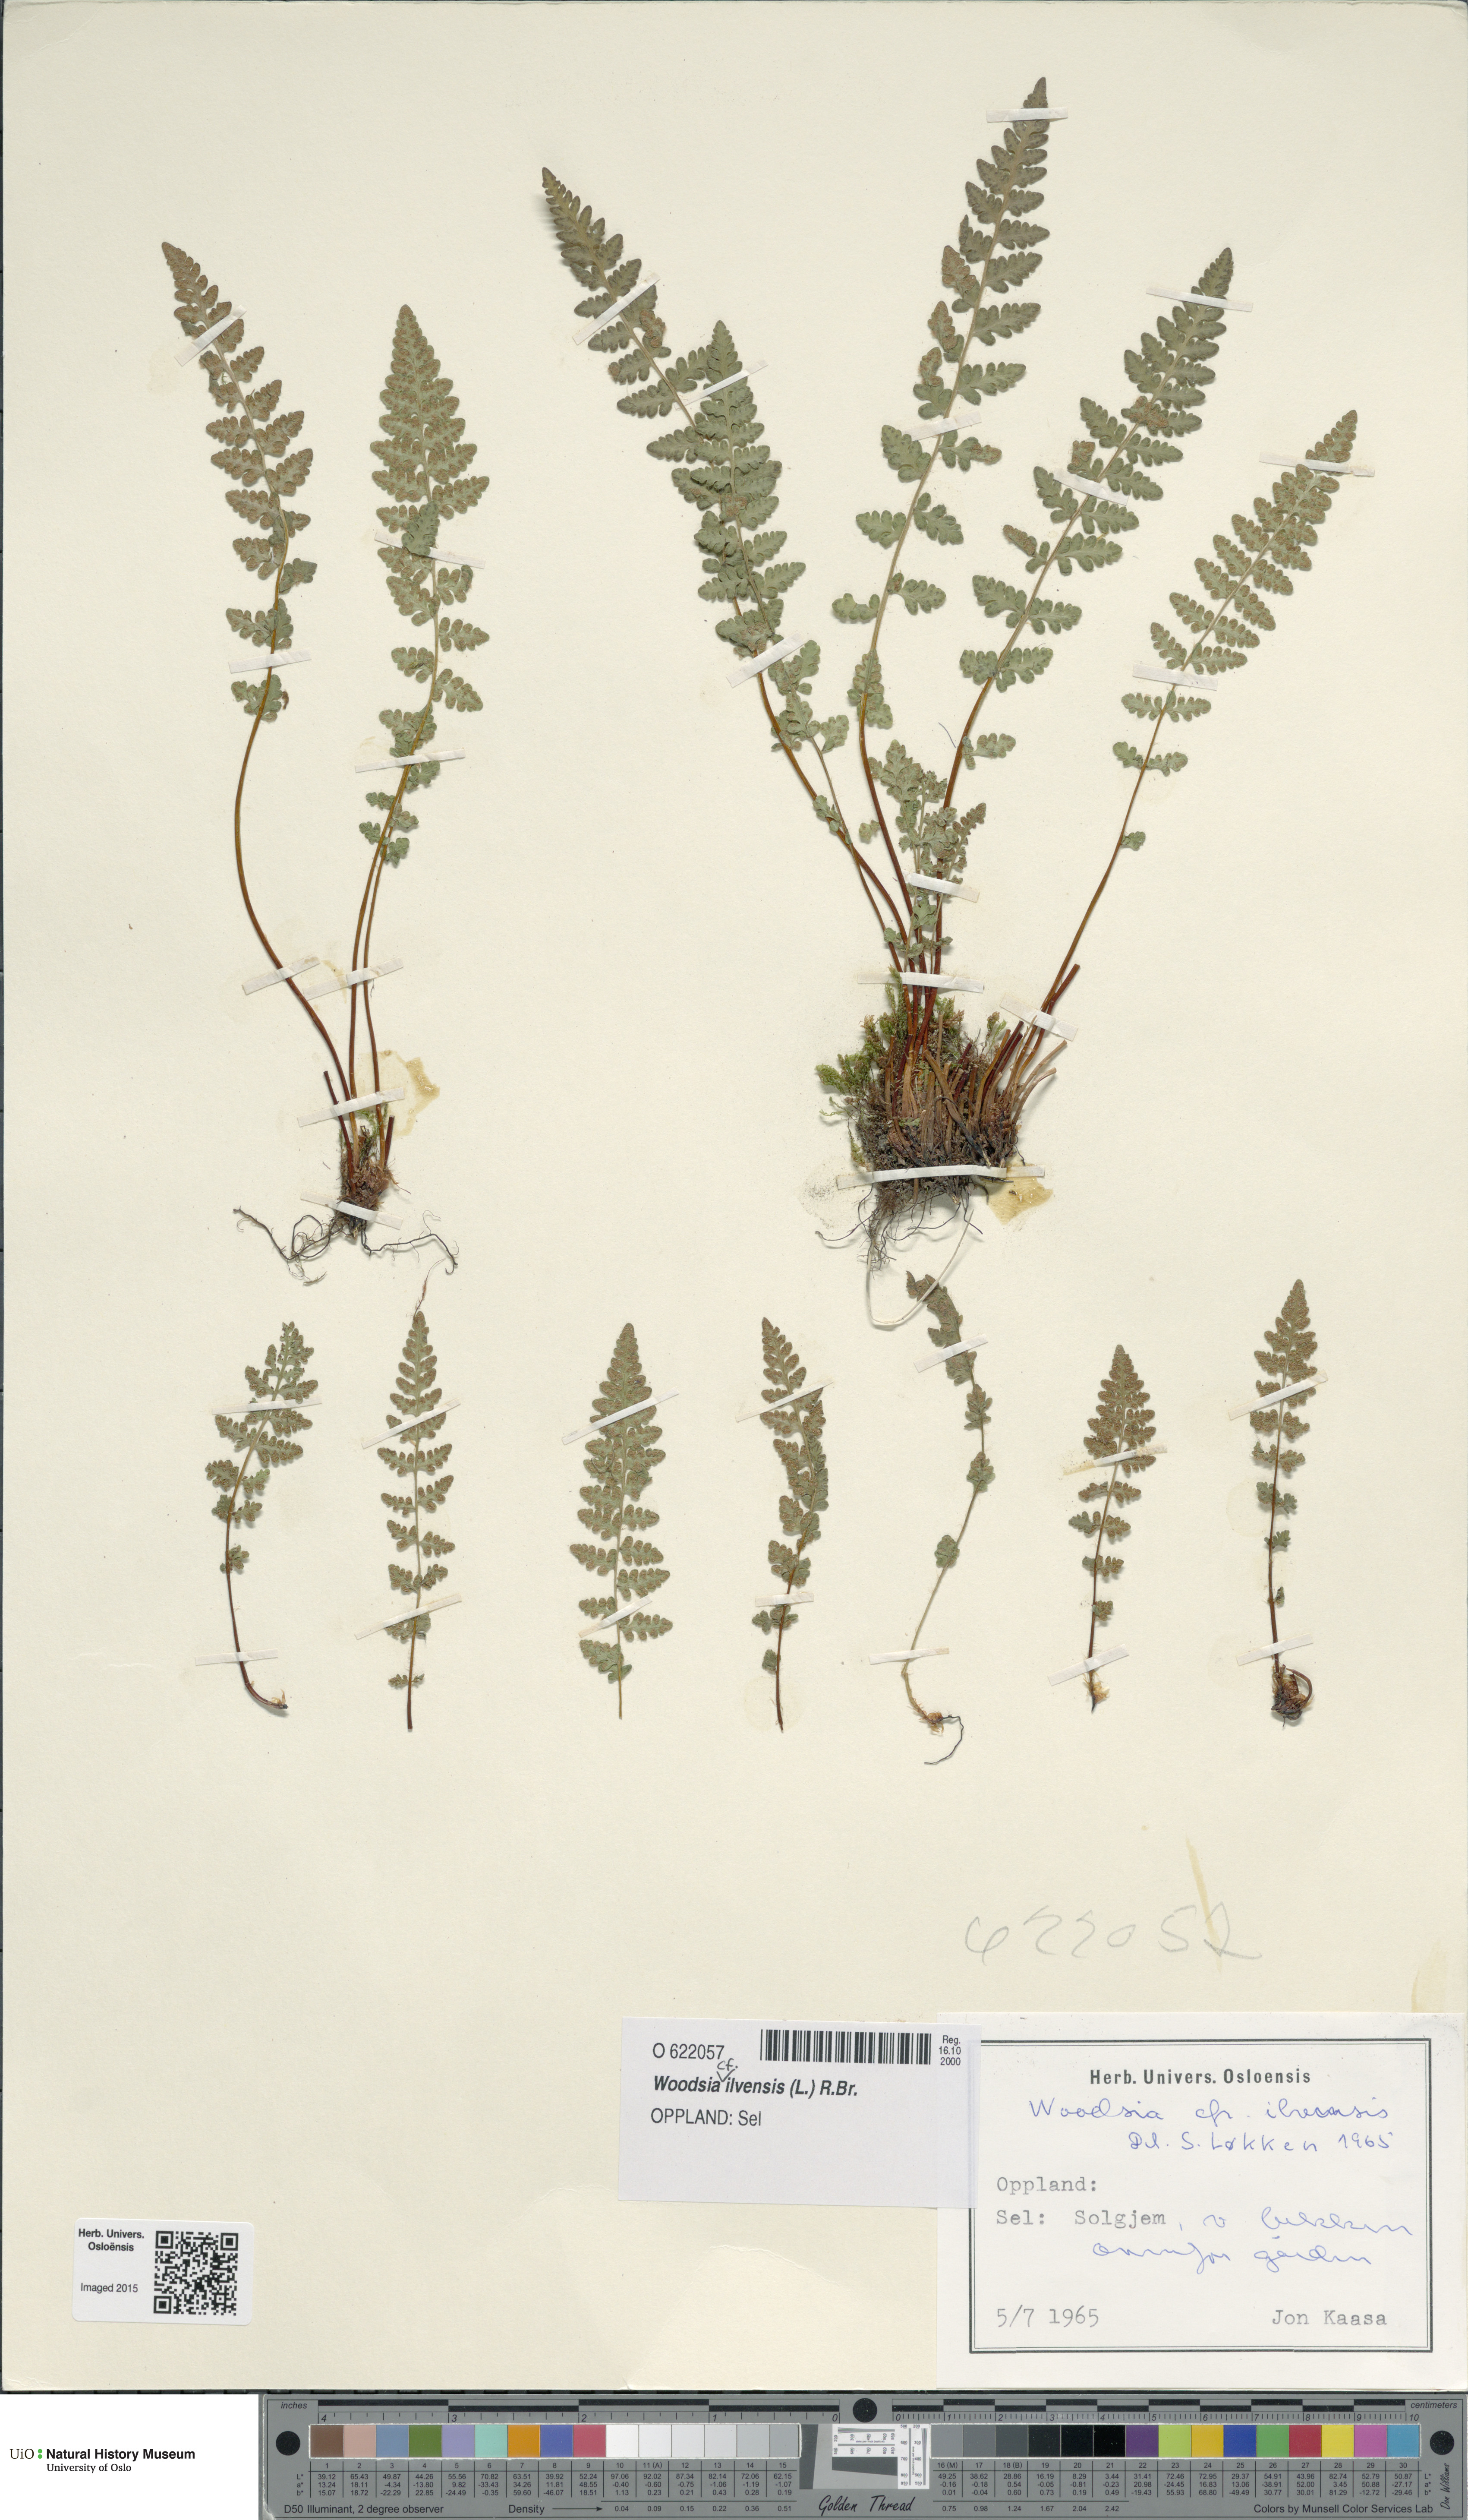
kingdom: Plantae
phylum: Tracheophyta
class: Polypodiopsida
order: Polypodiales
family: Woodsiaceae
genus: Woodsia
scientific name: Woodsia ilvensis
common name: Fragrant woodsia
